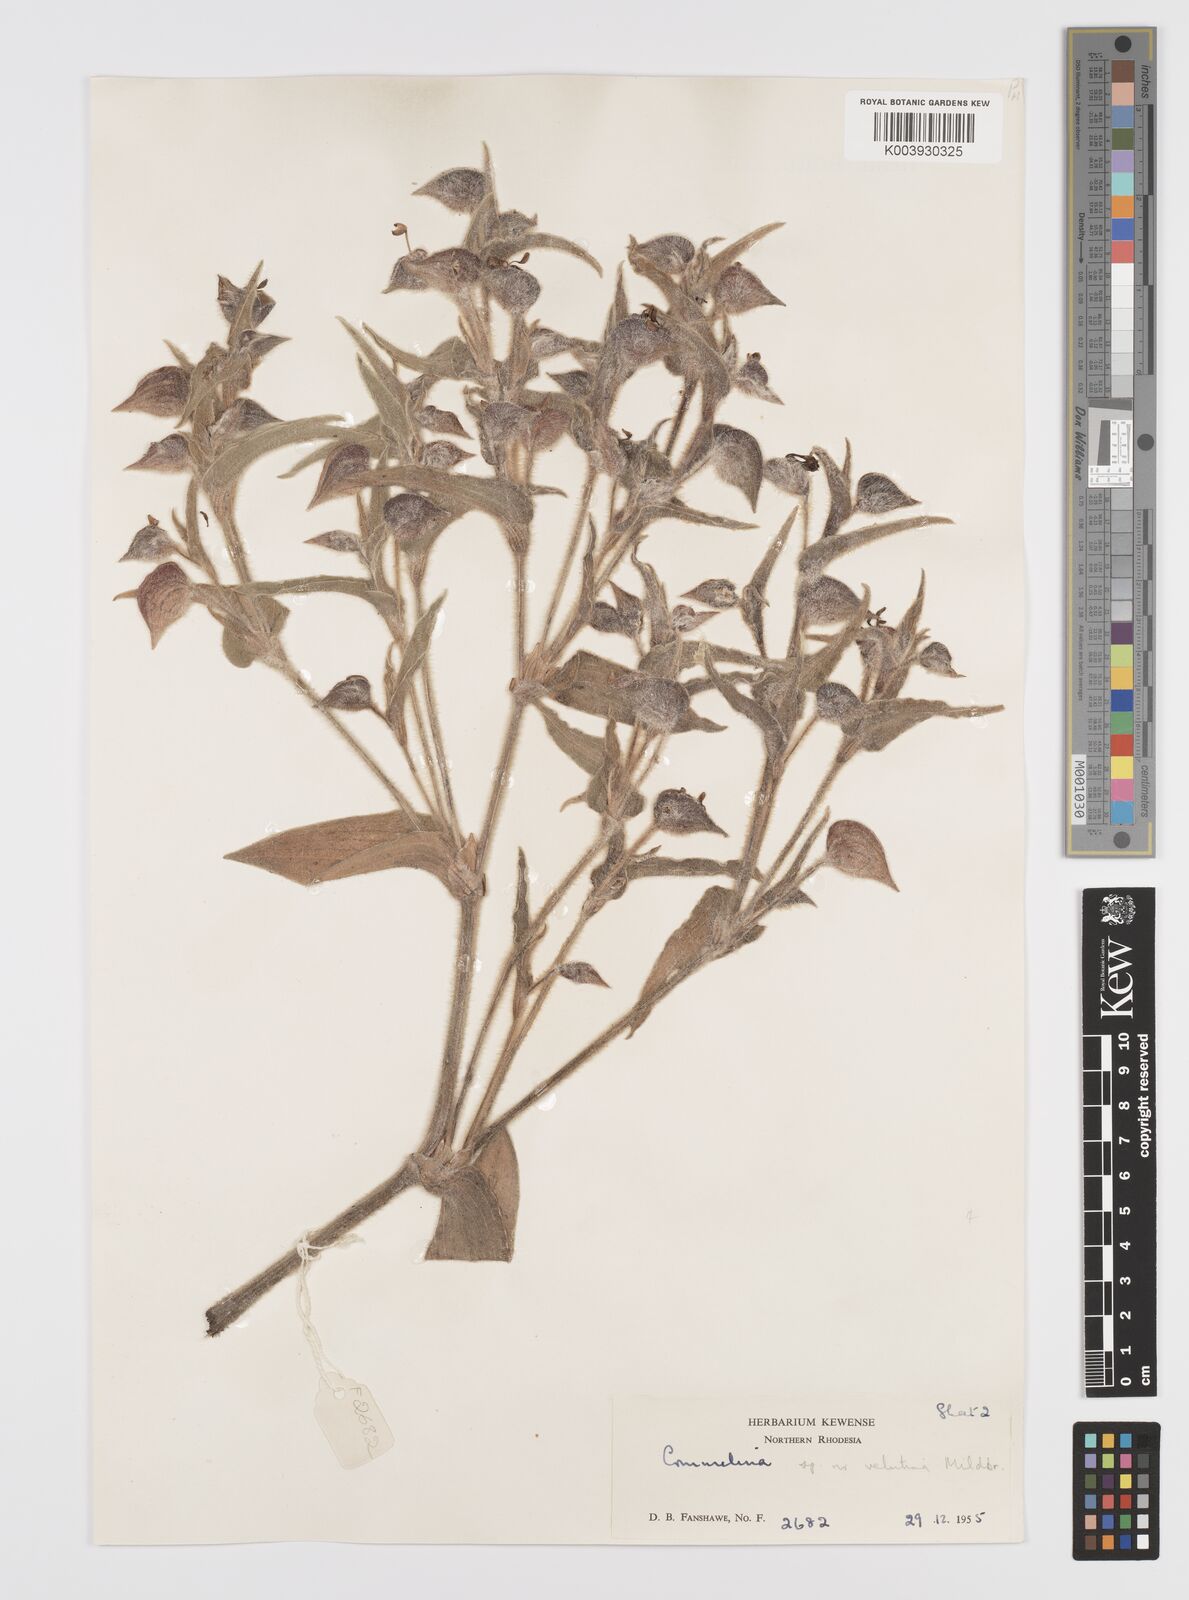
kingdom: Plantae
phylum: Tracheophyta
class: Liliopsida
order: Commelinales
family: Commelinaceae
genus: Commelina
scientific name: Commelina cecilae
